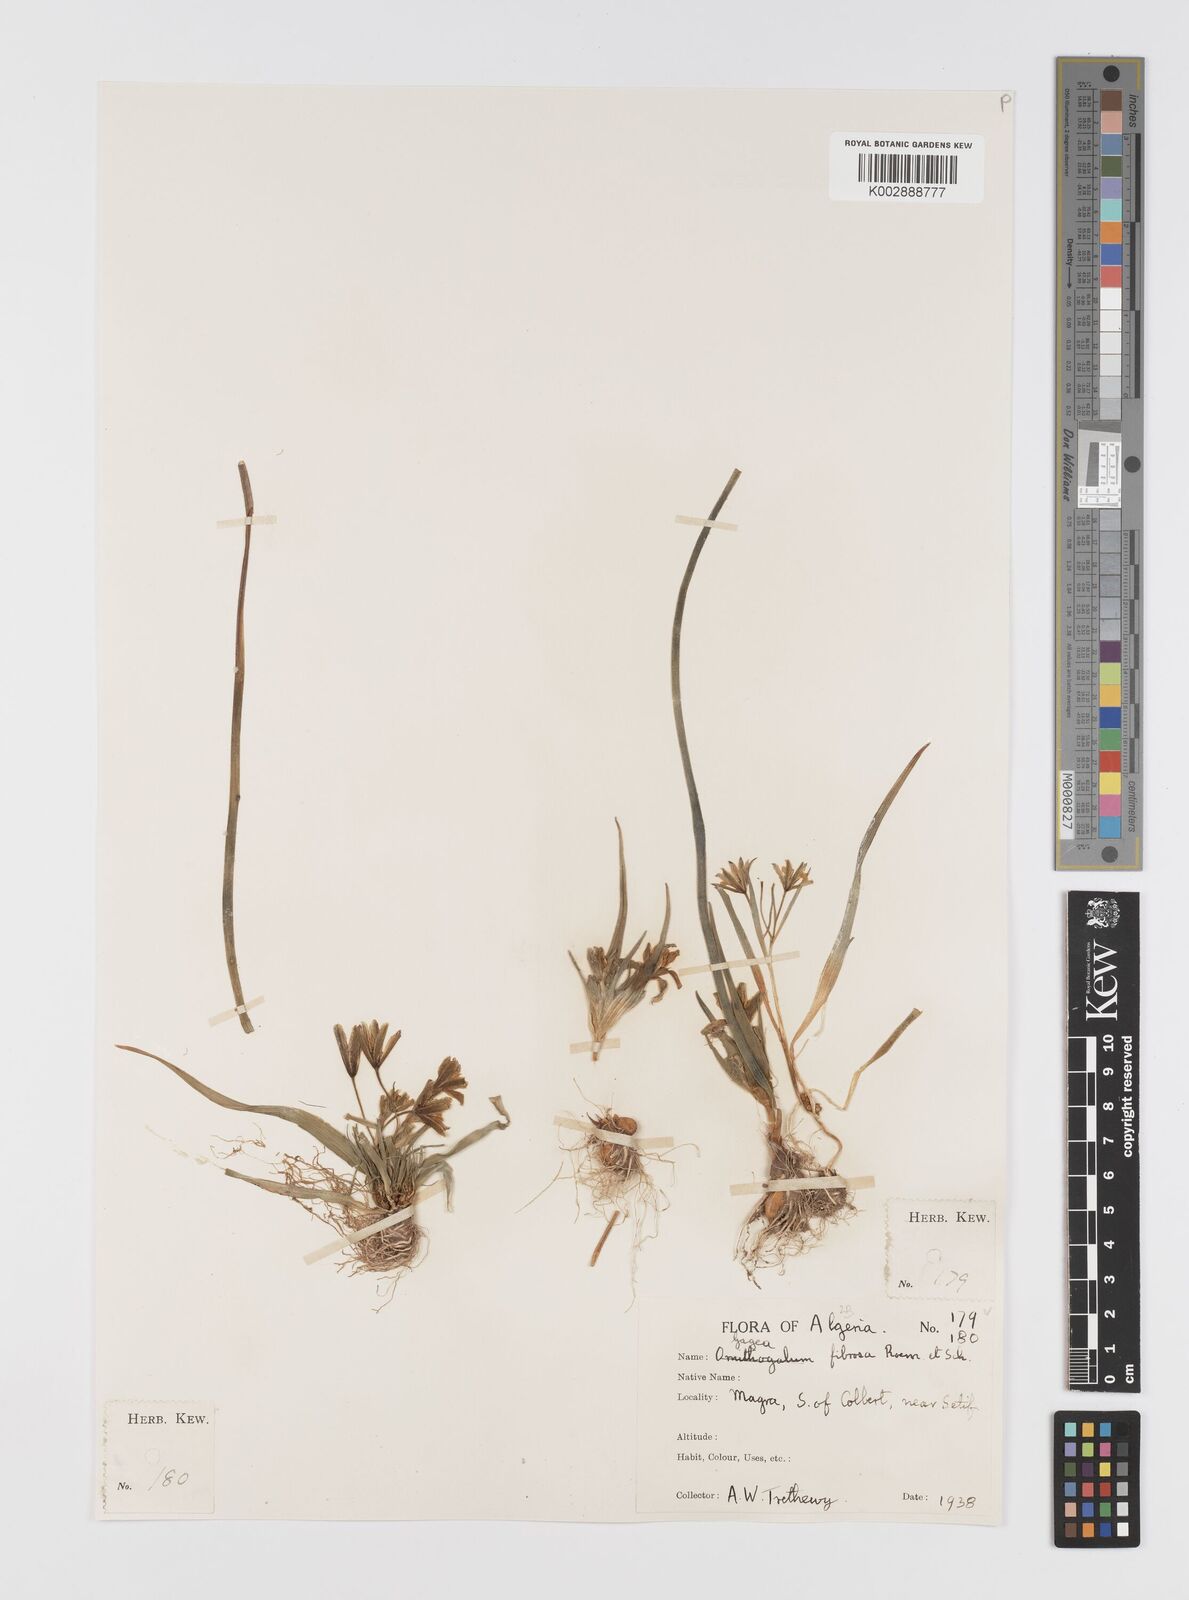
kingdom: Plantae
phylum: Tracheophyta
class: Liliopsida
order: Liliales
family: Liliaceae
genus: Gagea
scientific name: Gagea
